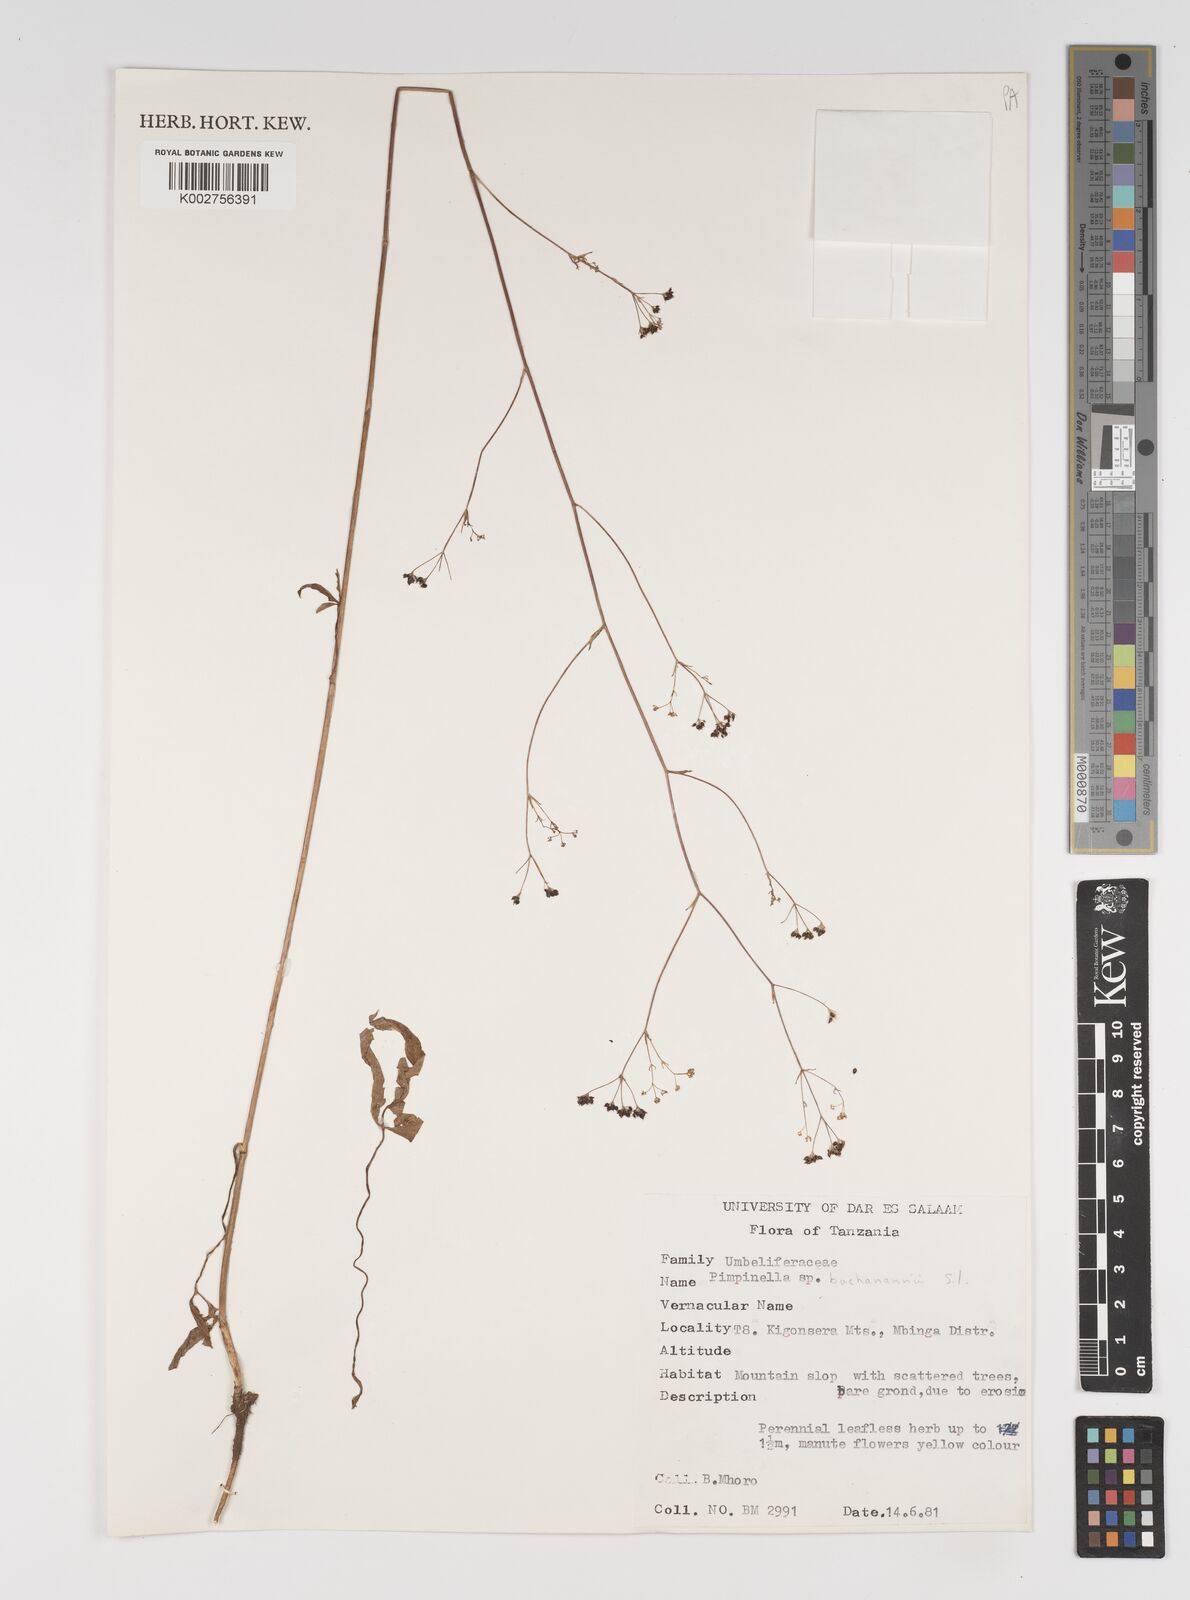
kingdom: Plantae
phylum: Tracheophyta
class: Magnoliopsida
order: Apiales
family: Apiaceae
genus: Pimpinella
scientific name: Pimpinella buchananii
